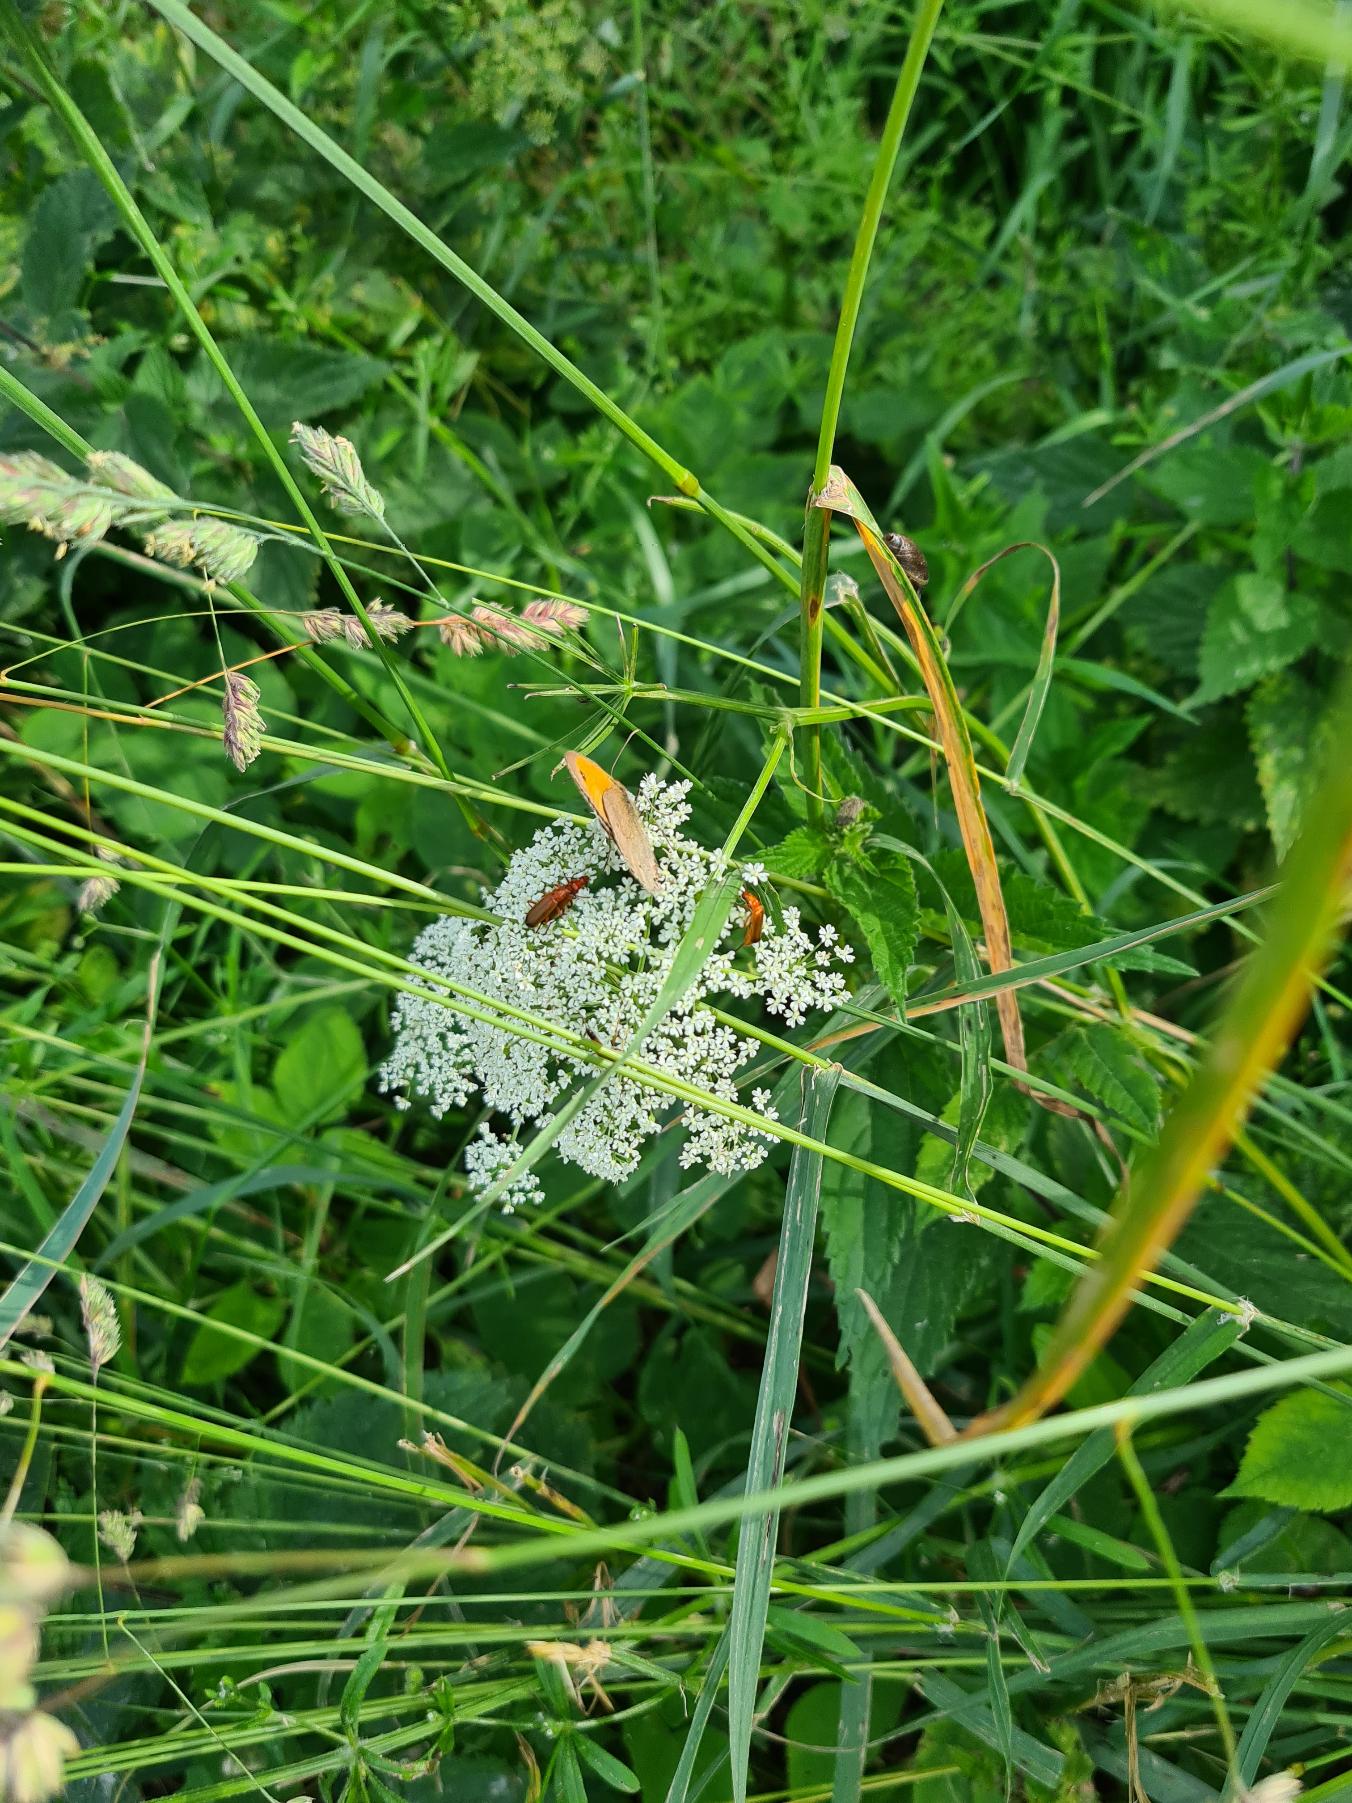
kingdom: Animalia
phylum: Arthropoda
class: Insecta
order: Lepidoptera
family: Nymphalidae
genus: Maniola
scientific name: Maniola jurtina
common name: Græsrandøje
